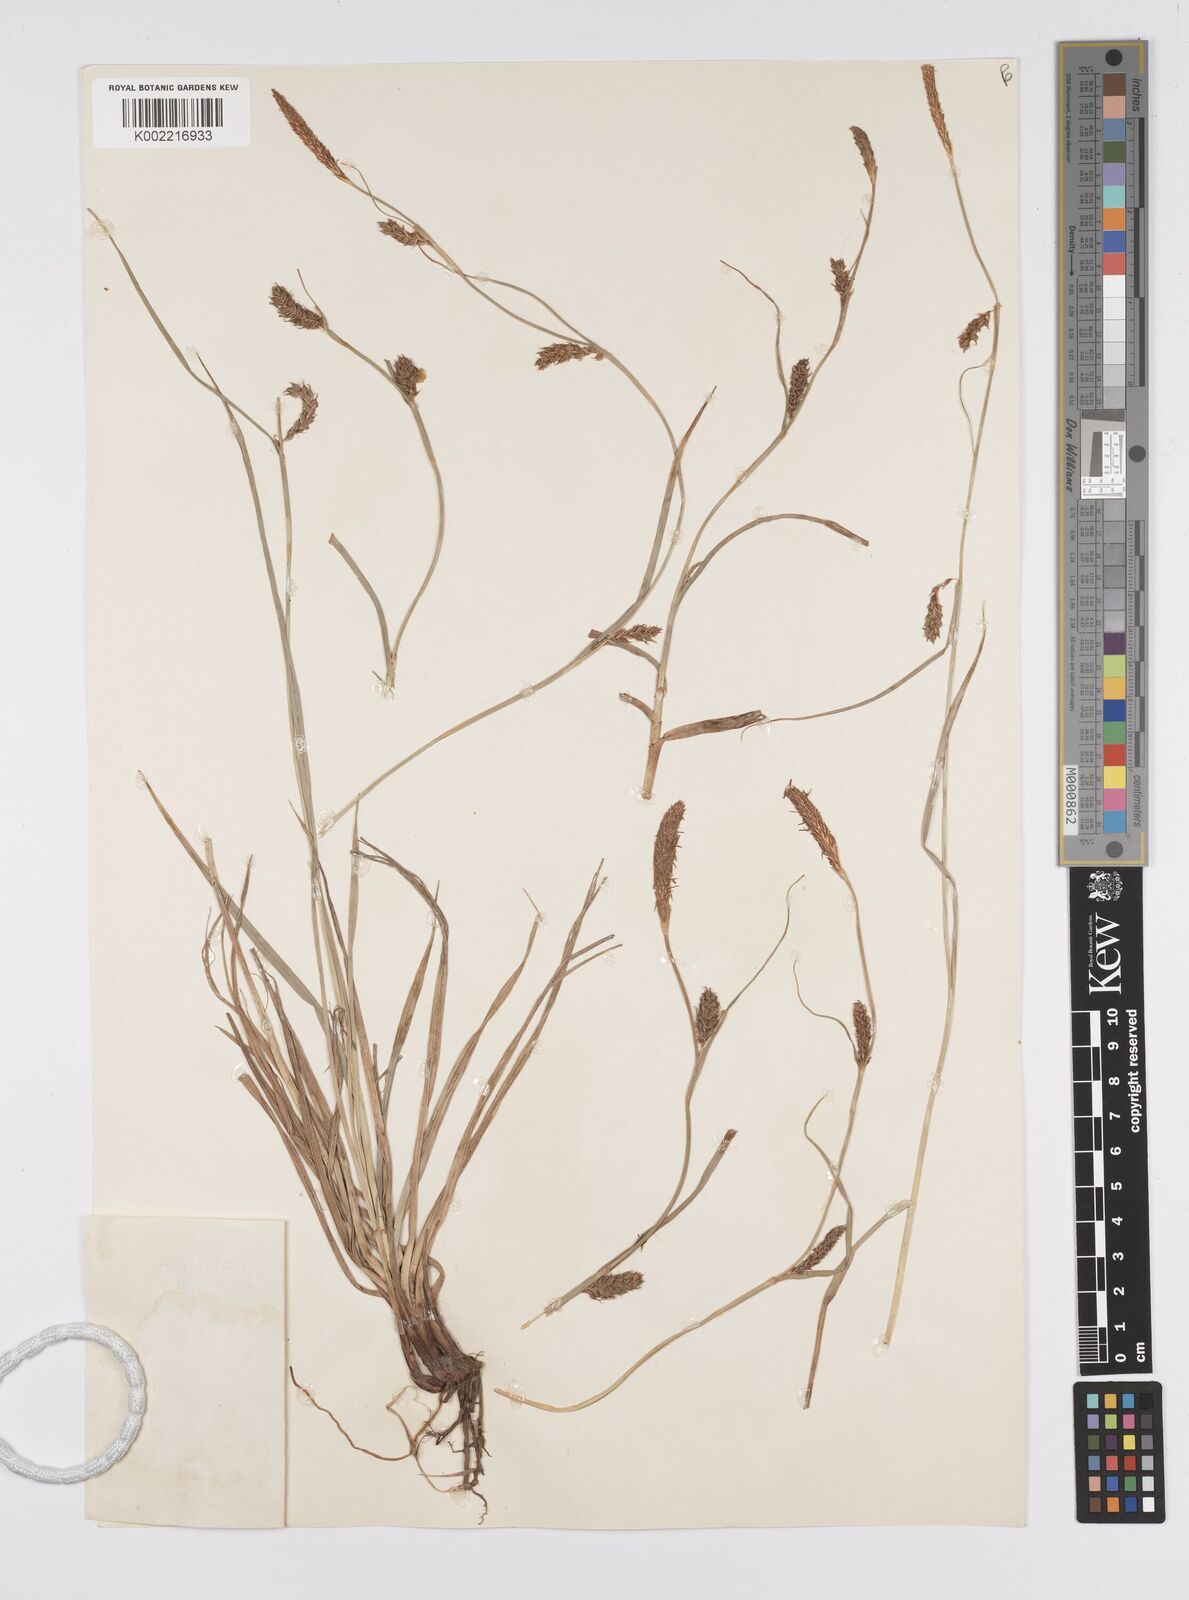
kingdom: Plantae
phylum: Tracheophyta
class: Liliopsida
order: Poales
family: Cyperaceae
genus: Carex
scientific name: Carex distans
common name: Distant sedge
